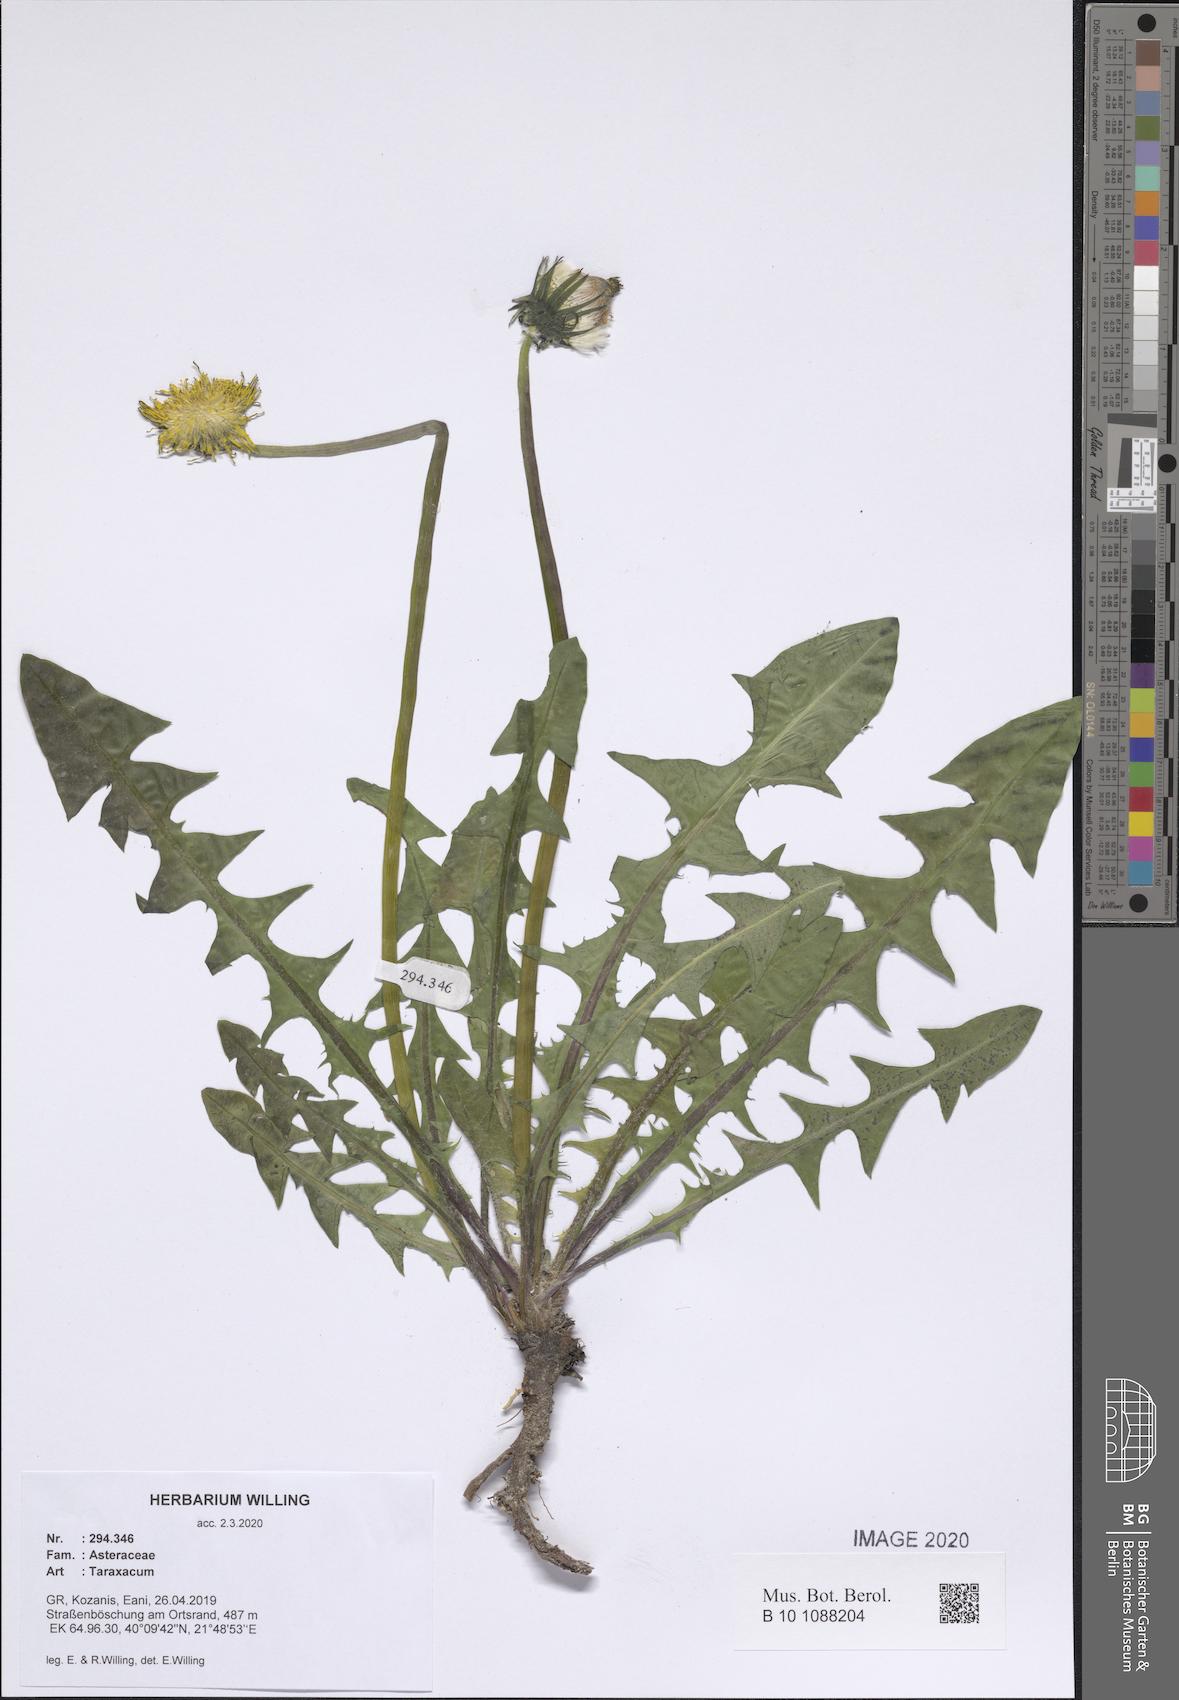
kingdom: Plantae
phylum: Tracheophyta
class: Magnoliopsida
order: Asterales
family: Asteraceae
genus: Taraxacum
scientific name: Taraxacum
